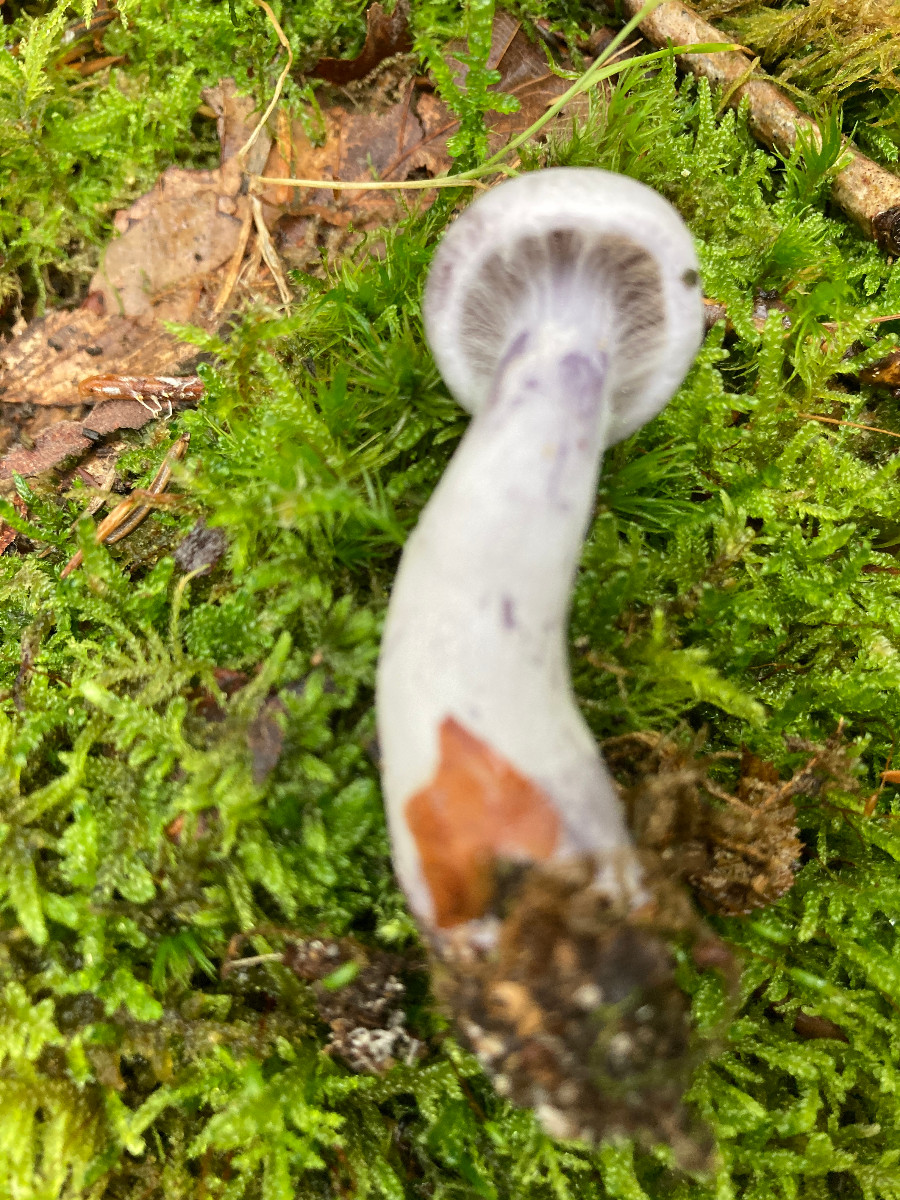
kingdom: Fungi
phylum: Basidiomycota
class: Agaricomycetes
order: Agaricales
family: Cortinariaceae
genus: Cortinarius
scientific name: Cortinarius acutispissipes
